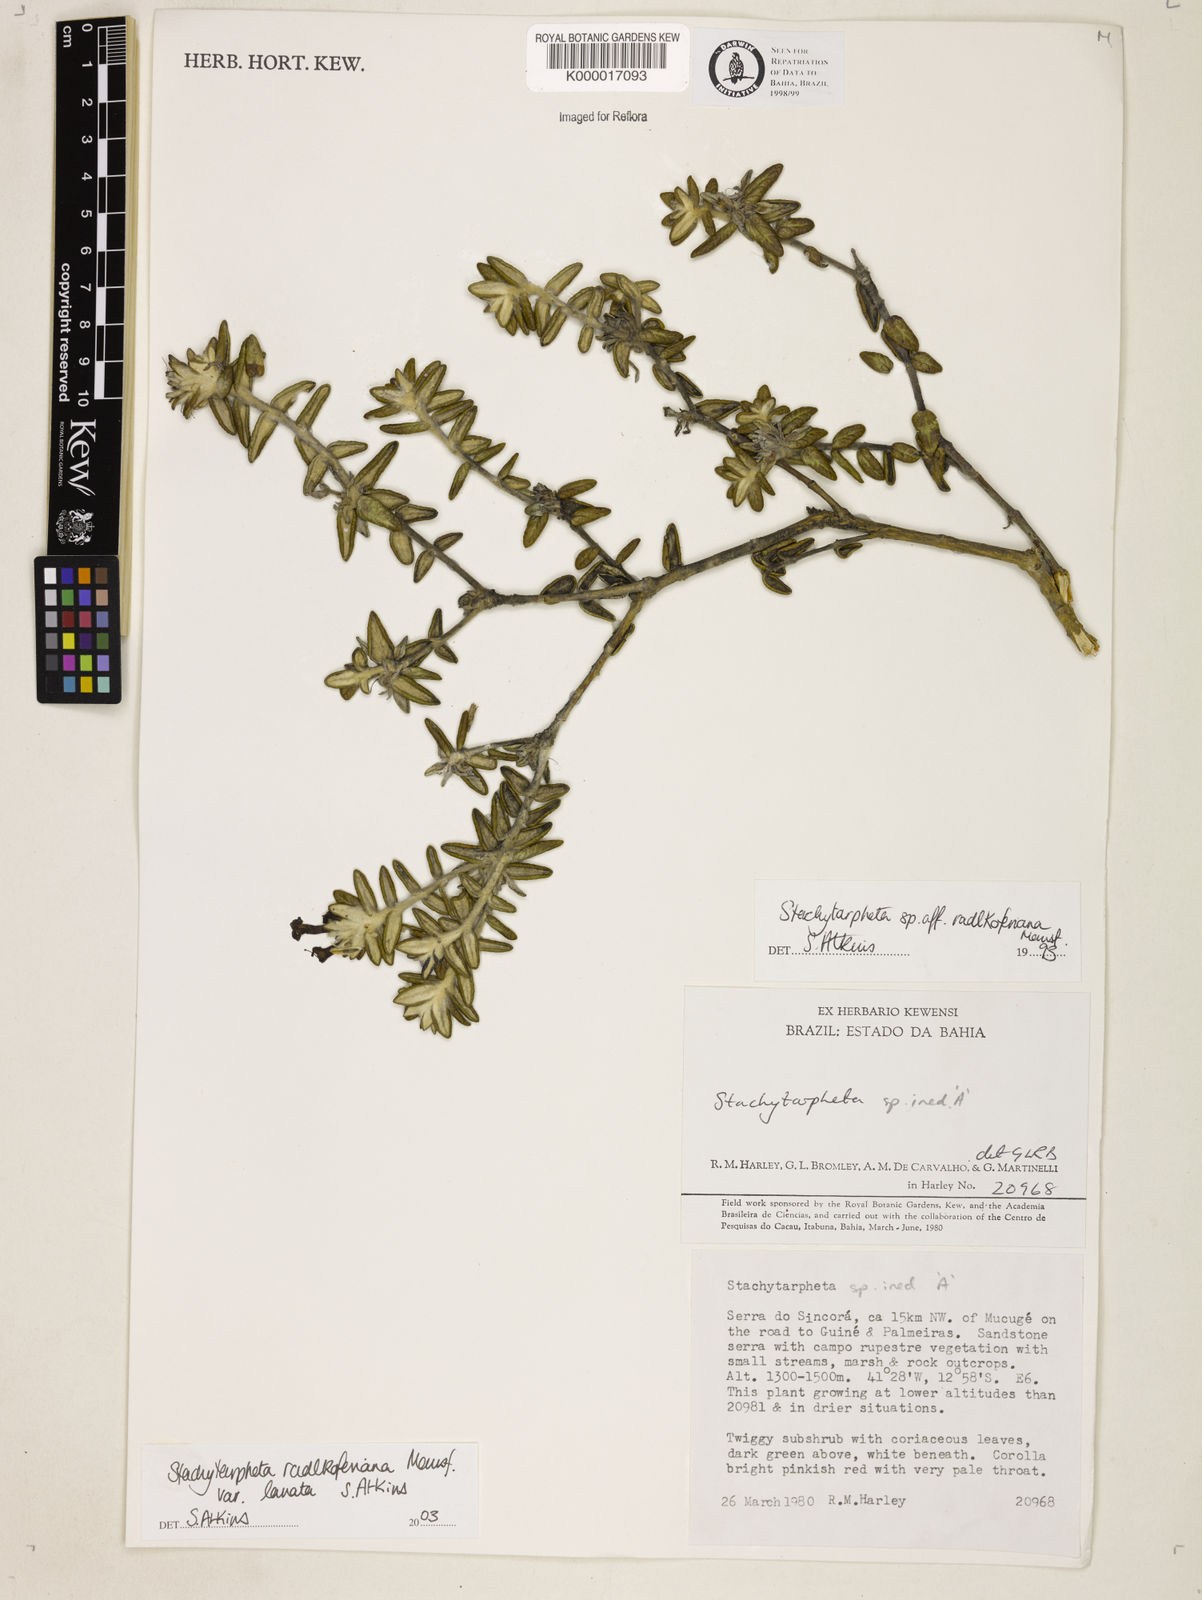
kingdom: Plantae
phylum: Tracheophyta
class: Magnoliopsida
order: Lamiales
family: Verbenaceae
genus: Stachytarpheta
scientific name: Stachytarpheta radlkoferiana
